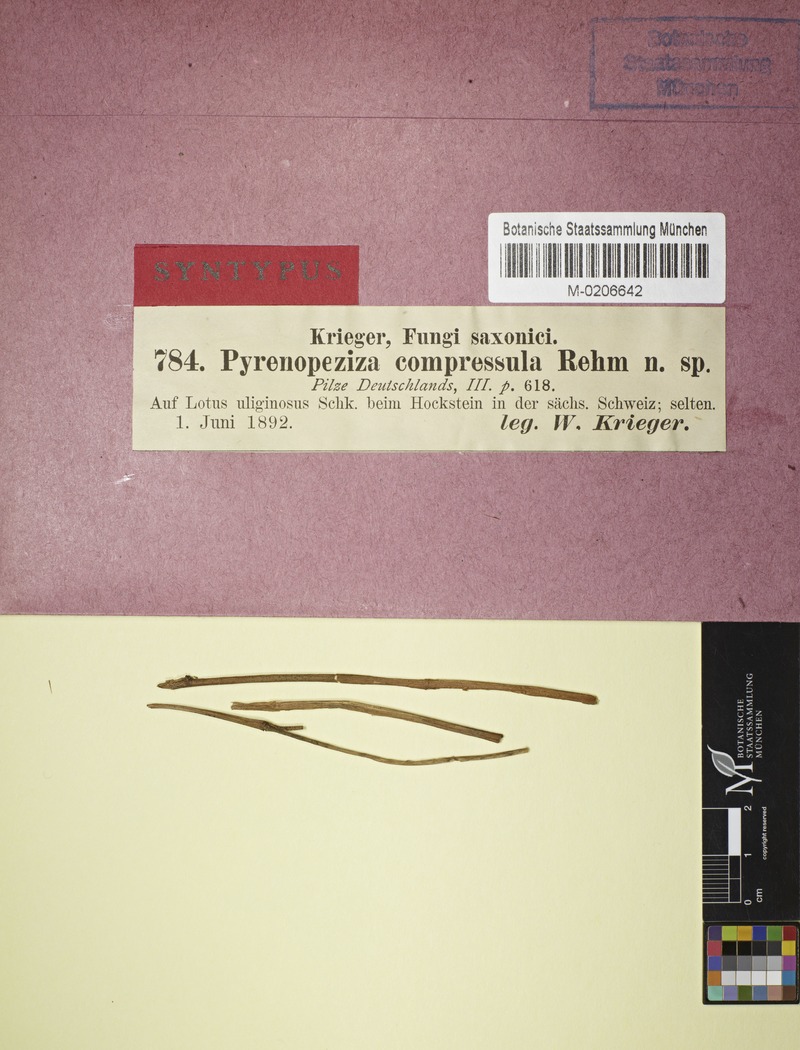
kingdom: Fungi
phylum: Ascomycota
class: Leotiomycetes
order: Helotiales
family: Ploettnerulaceae
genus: Pyrenopeziza
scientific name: Pyrenopeziza compressula
